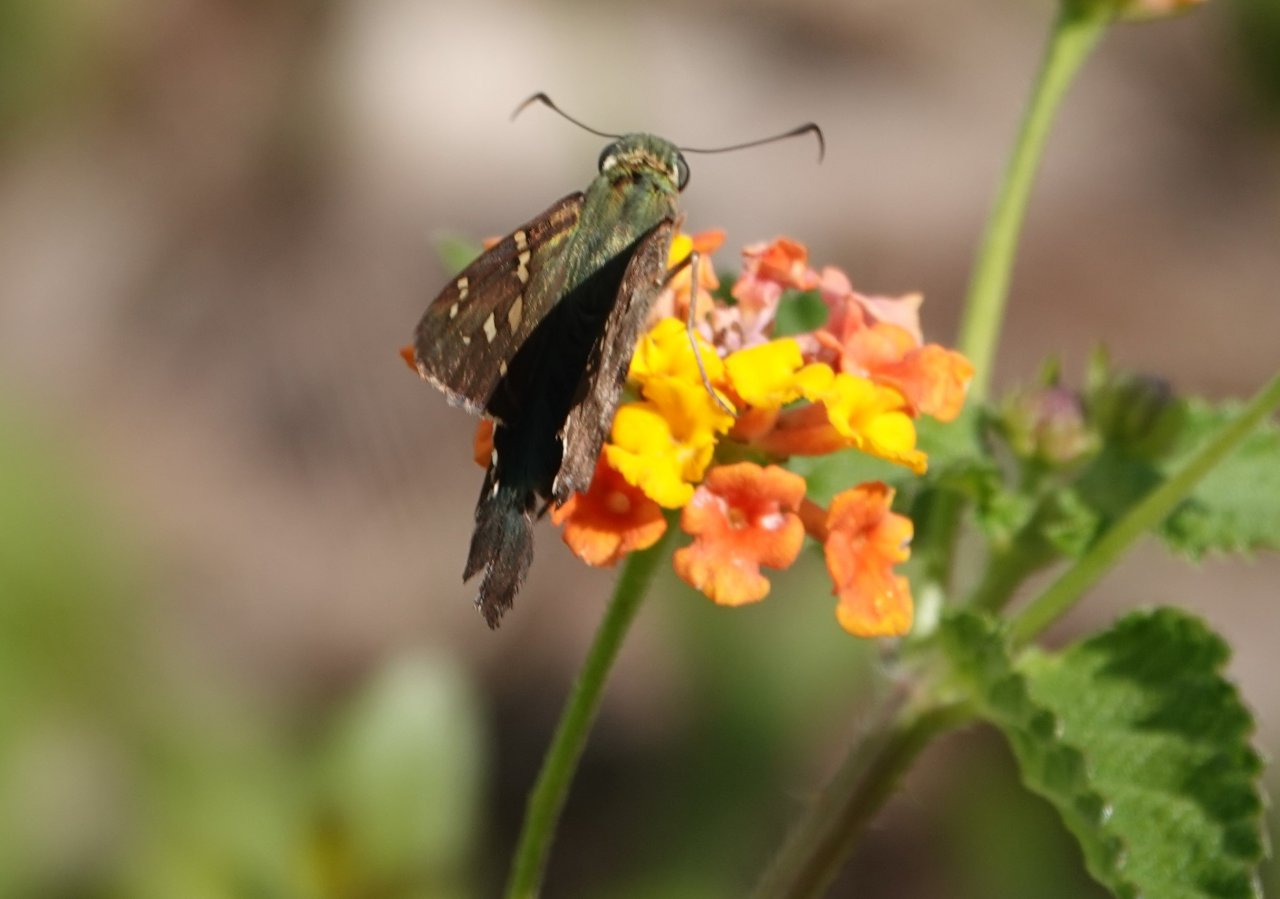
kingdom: Animalia
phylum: Arthropoda
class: Insecta
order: Lepidoptera
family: Hesperiidae
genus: Urbanus
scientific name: Urbanus proteus
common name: Long-tailed Skipper
